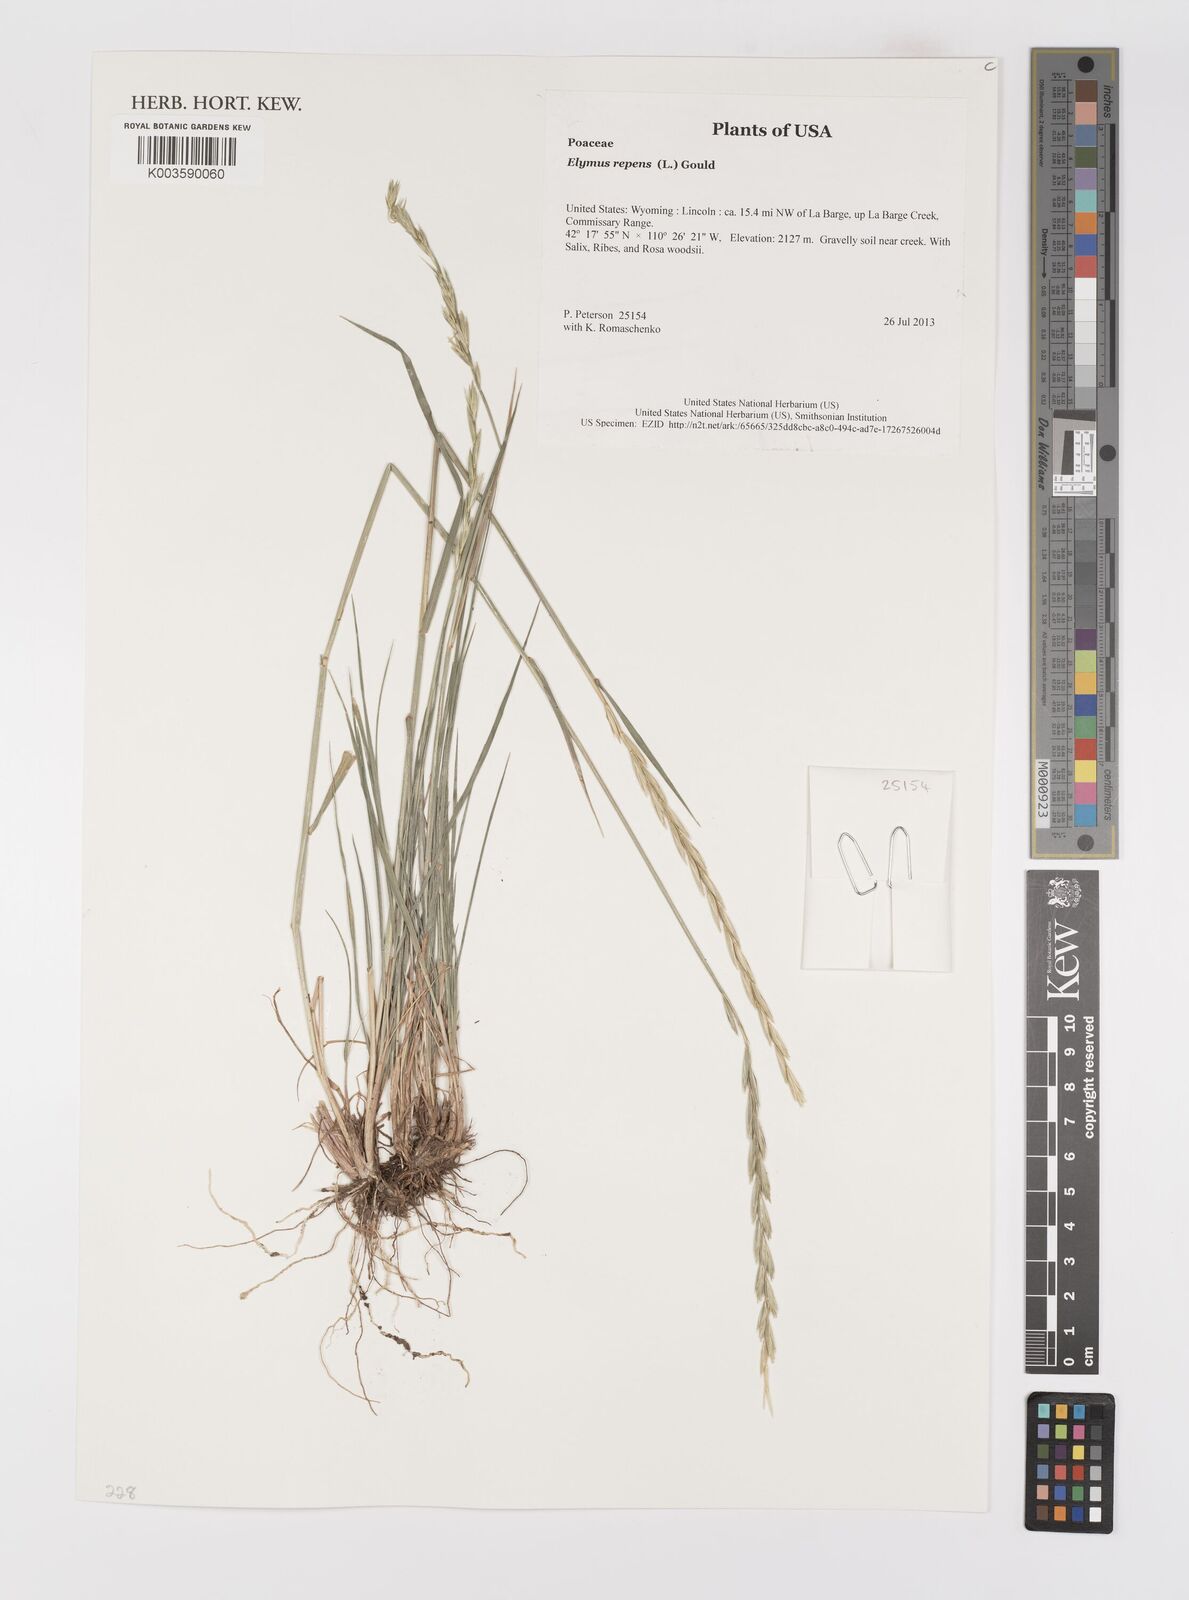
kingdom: Plantae
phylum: Tracheophyta
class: Liliopsida
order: Poales
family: Poaceae
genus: Elymus
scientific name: Elymus repens
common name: Quackgrass
